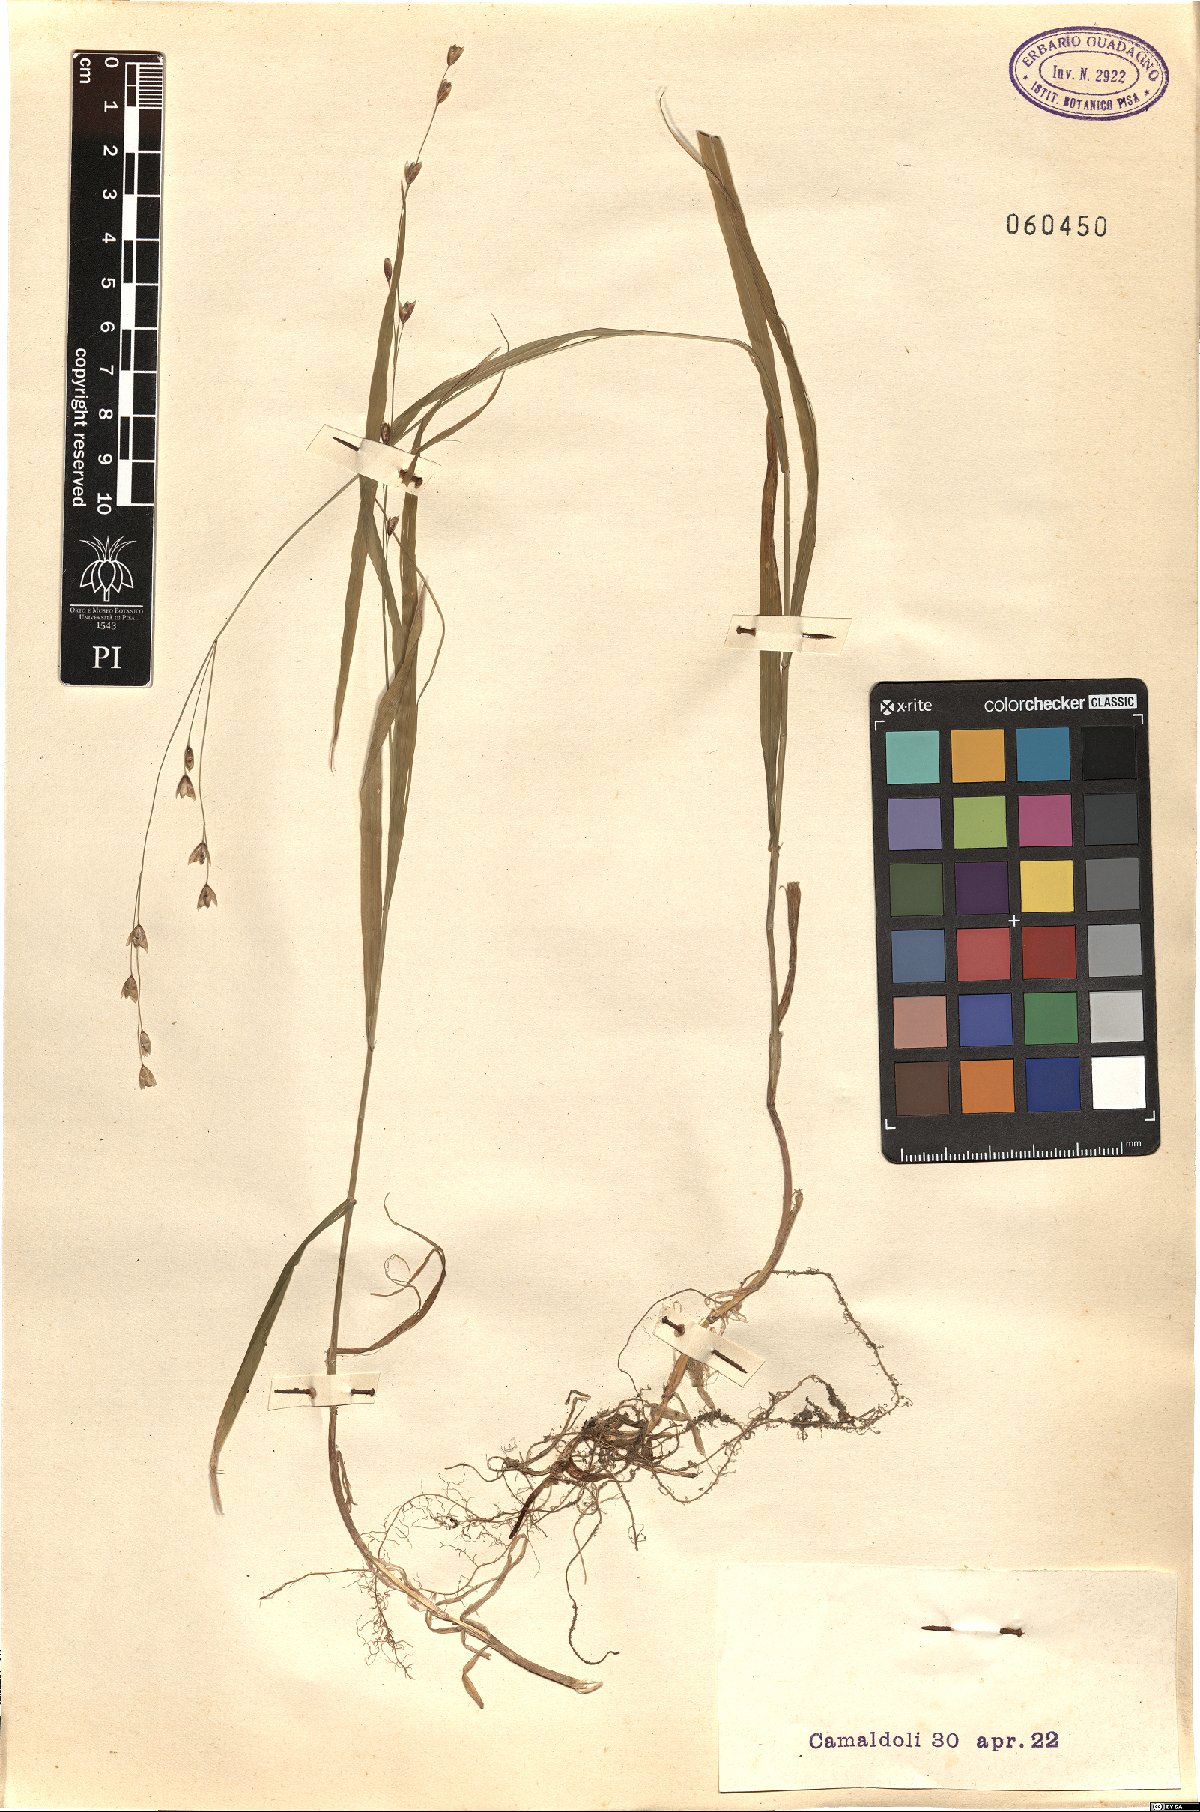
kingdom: Plantae
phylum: Tracheophyta
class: Liliopsida
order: Poales
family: Poaceae
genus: Melica
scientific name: Melica uniflora
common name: Wood melick
